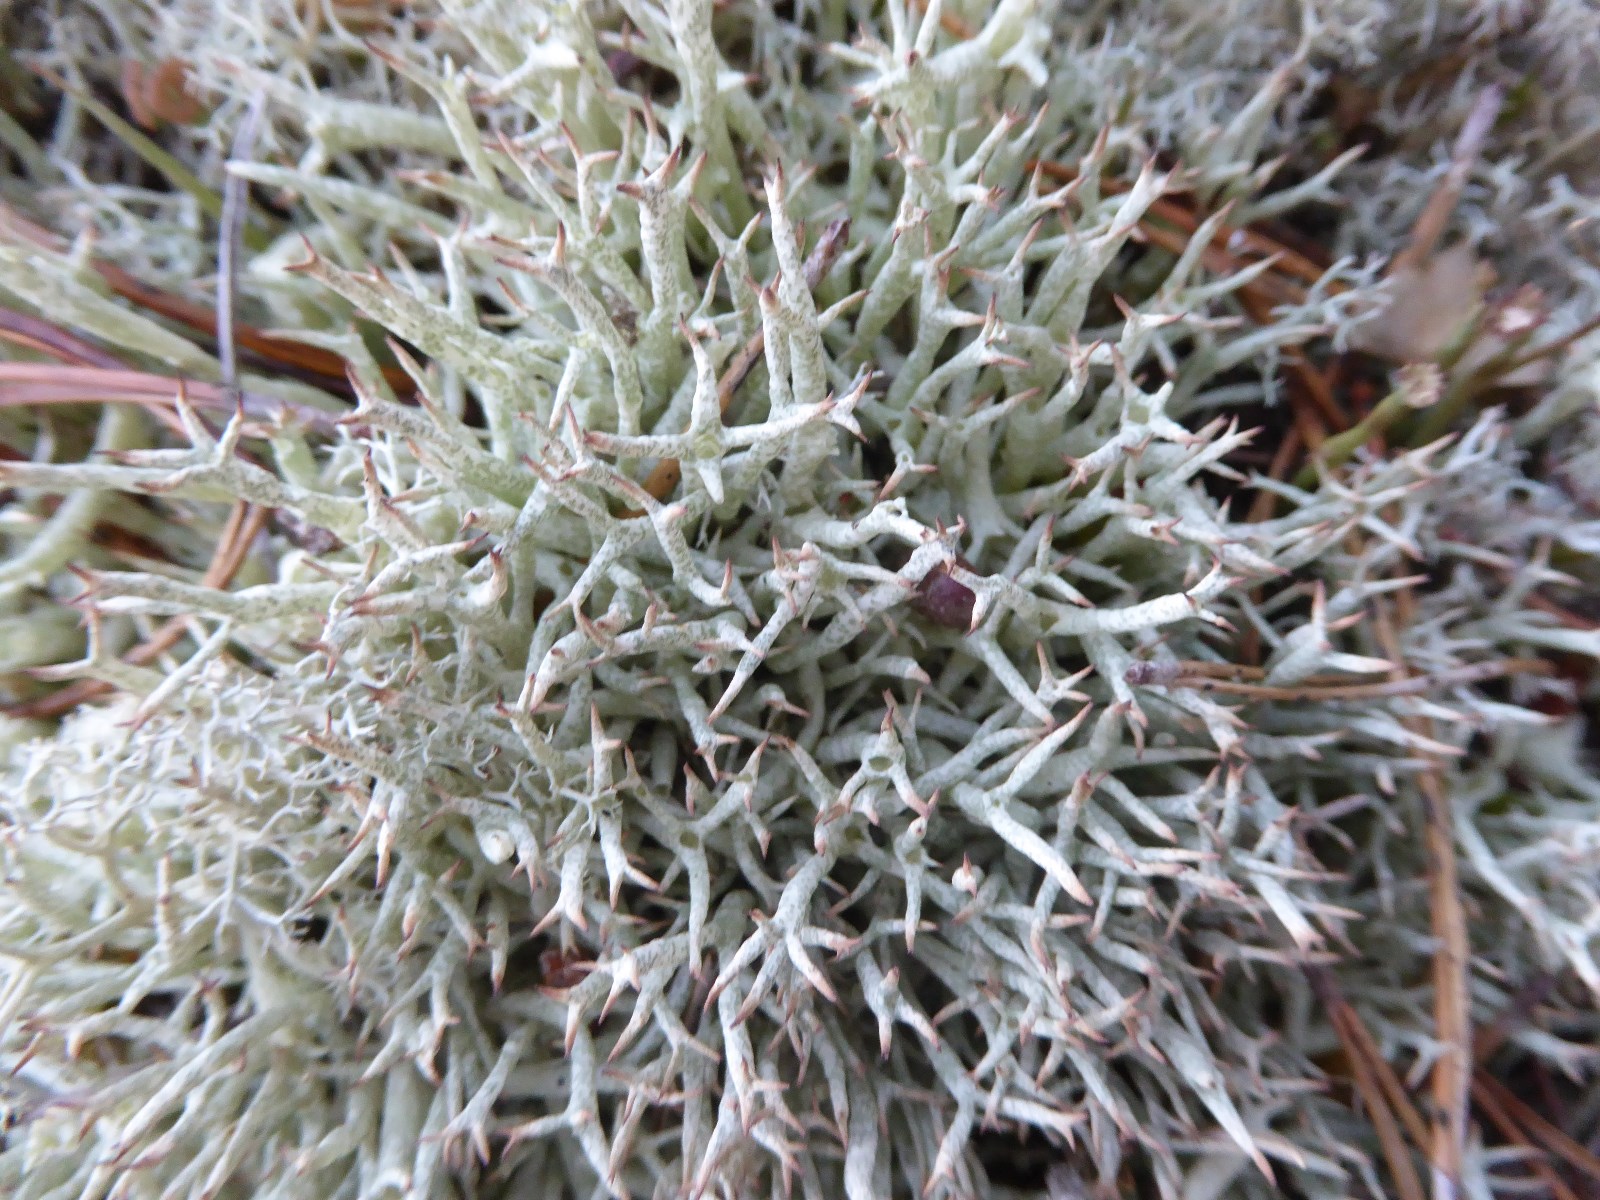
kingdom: Fungi
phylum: Ascomycota
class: Lecanoromycetes
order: Lecanorales
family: Cladoniaceae
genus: Cladonia
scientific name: Cladonia uncialis
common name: pigget bægerlav
